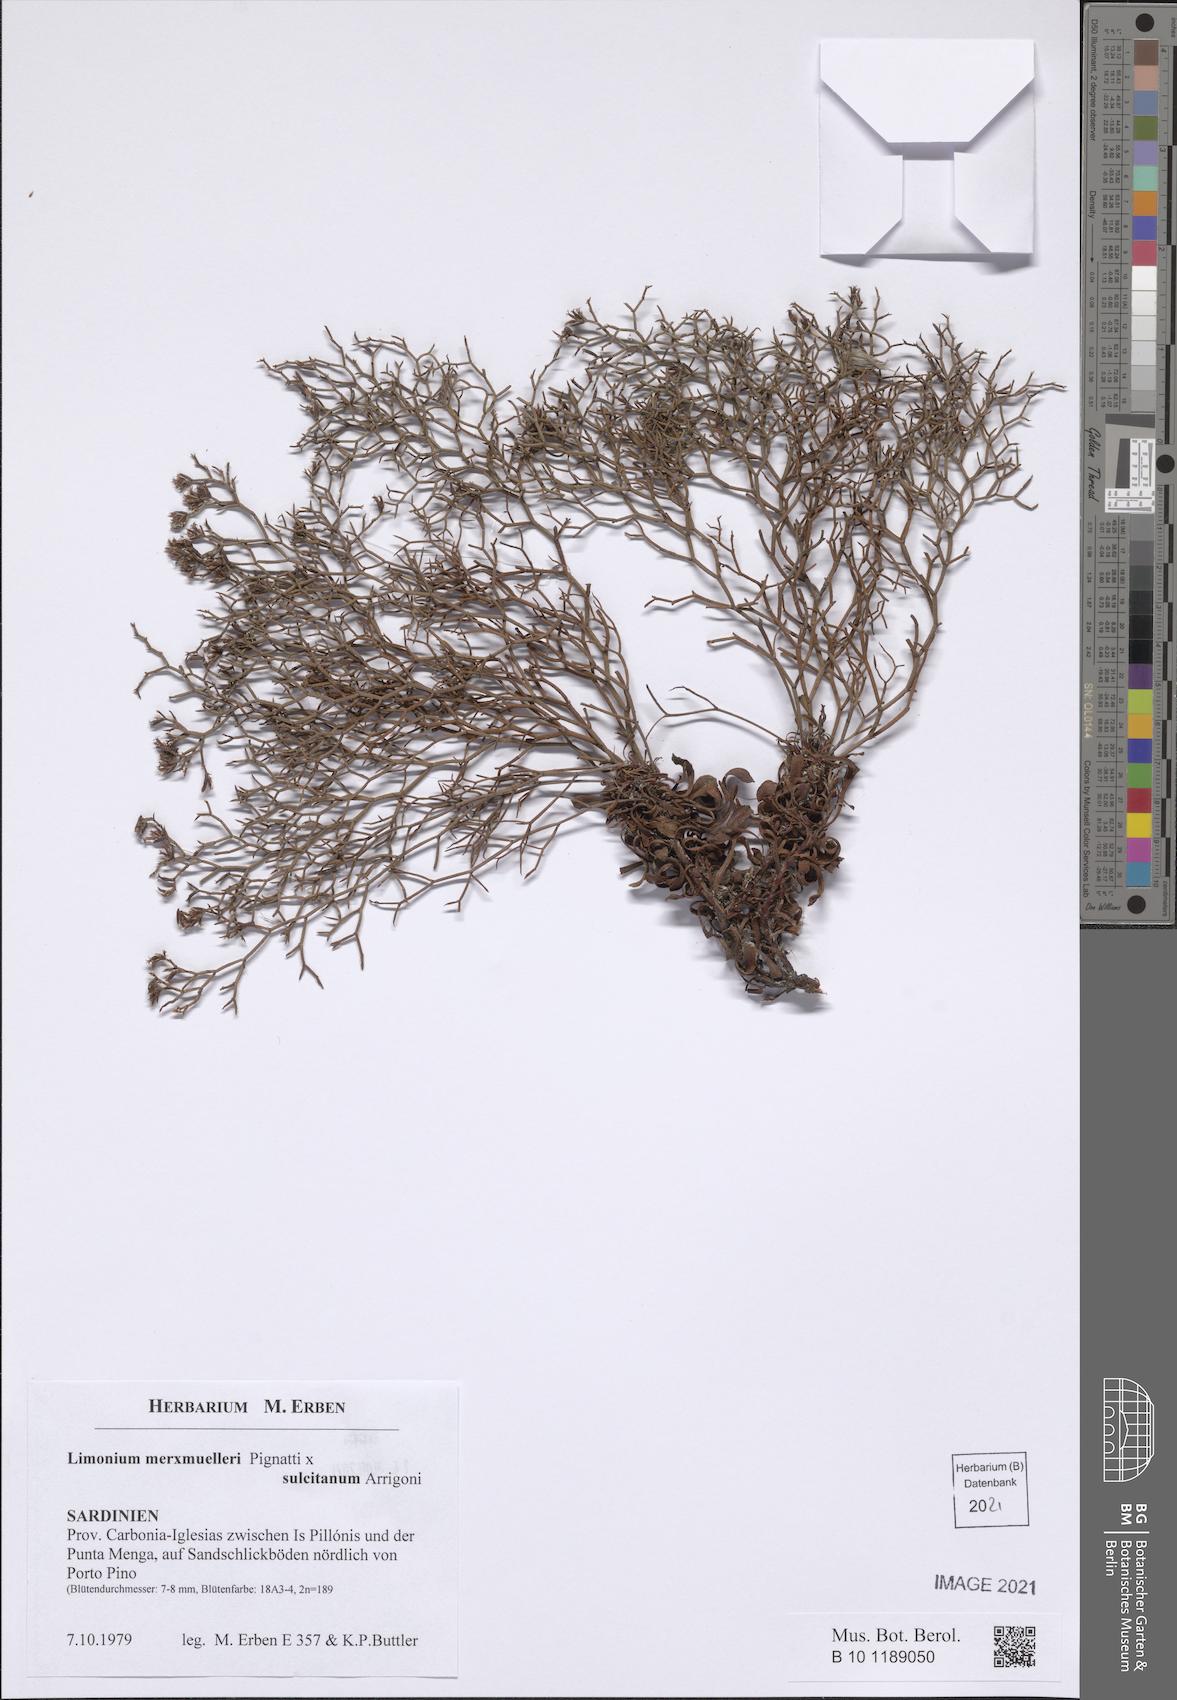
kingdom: Plantae
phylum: Tracheophyta
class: Magnoliopsida
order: Caryophyllales
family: Plumbaginaceae
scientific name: Plumbaginaceae
